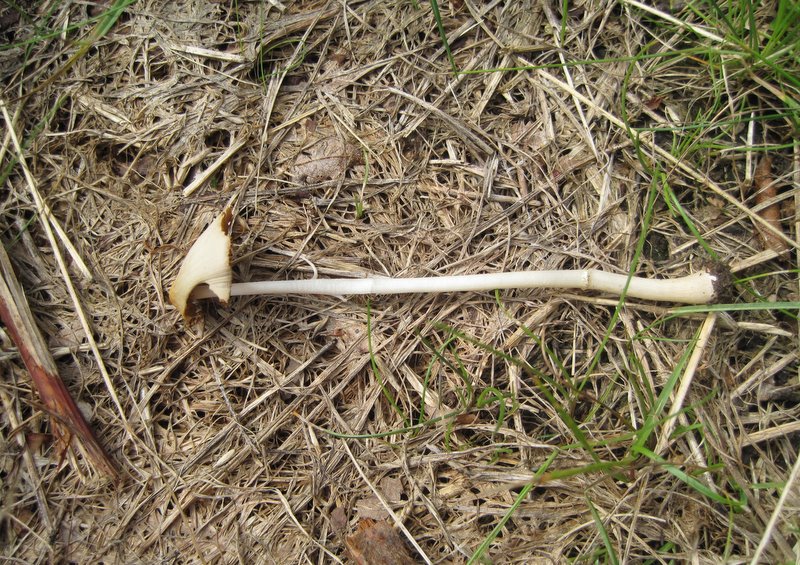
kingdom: Fungi
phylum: Basidiomycota
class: Agaricomycetes
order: Agaricales
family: Bolbitiaceae
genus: Conocybe
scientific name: Conocybe apala
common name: mælkehvid keglehat
